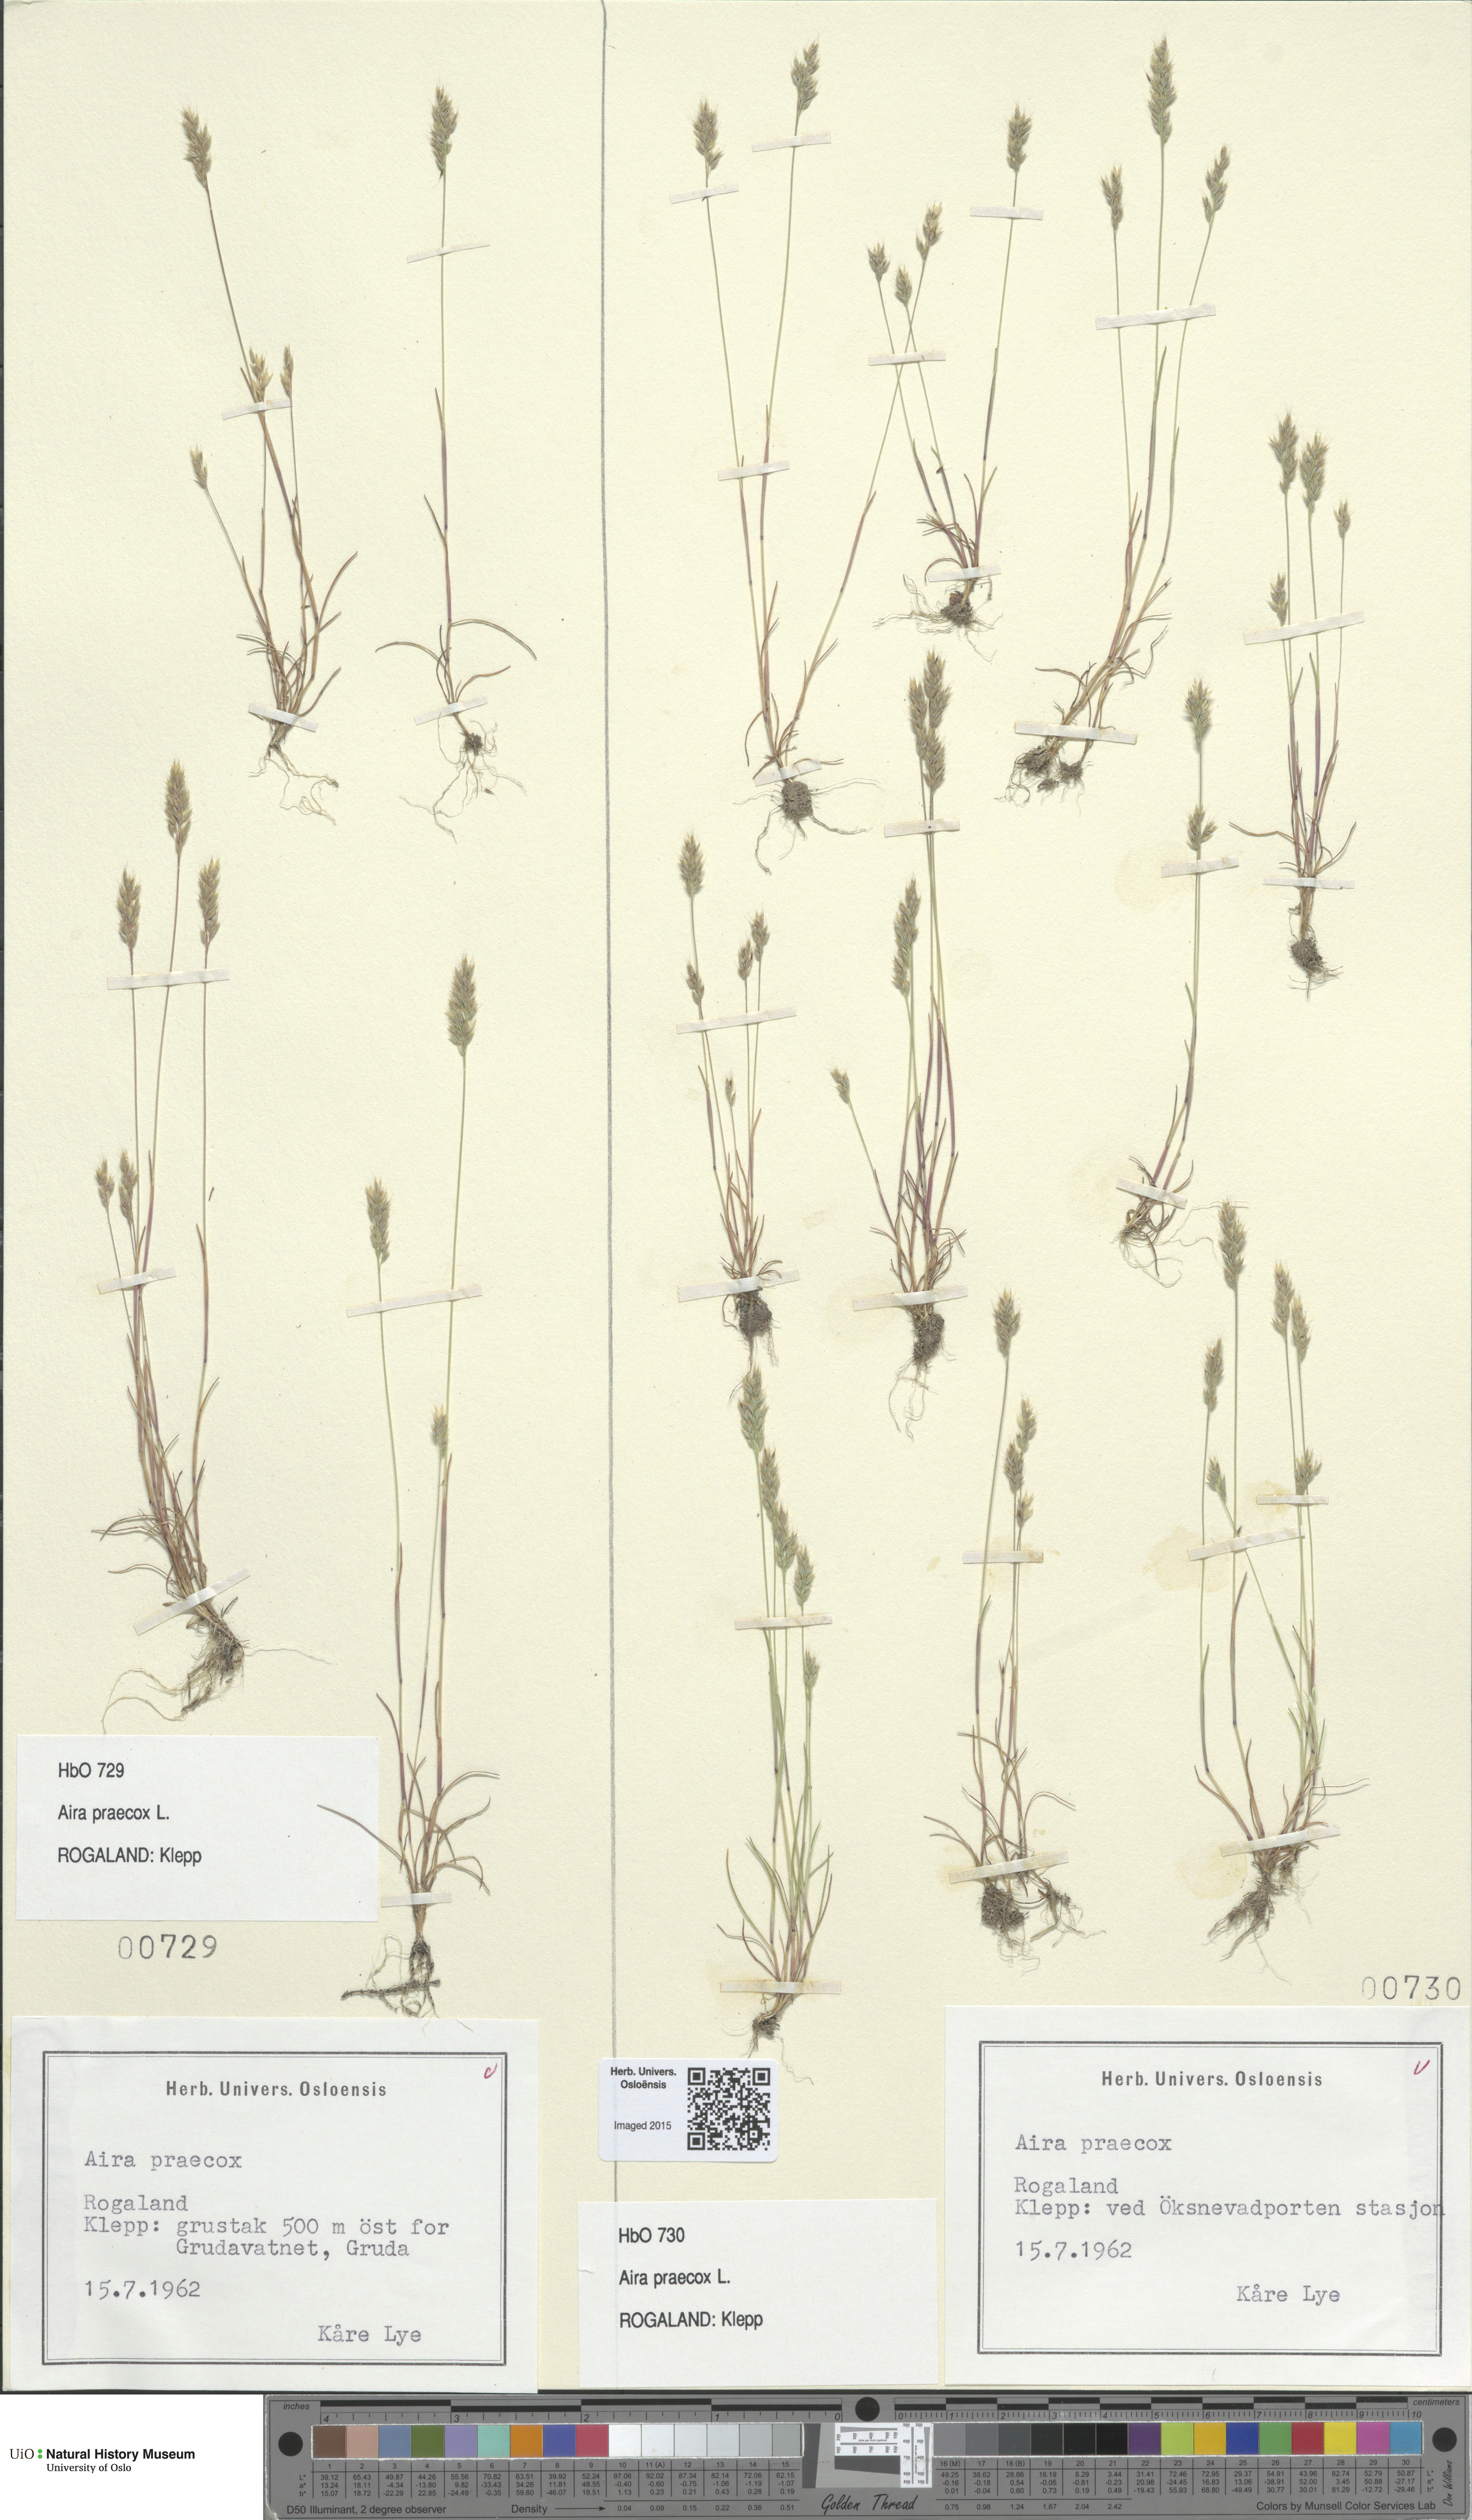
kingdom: Plantae
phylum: Tracheophyta
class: Liliopsida
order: Poales
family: Poaceae
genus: Aira
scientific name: Aira praecox
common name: Early hair-grass
